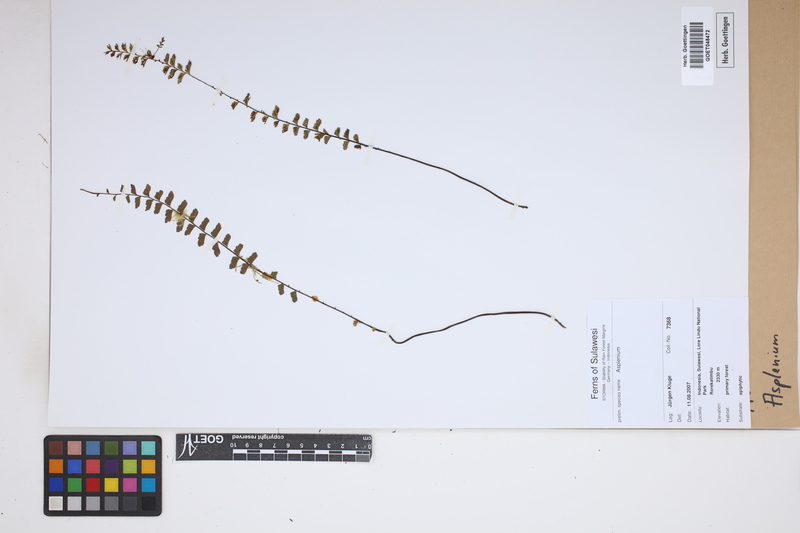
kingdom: Plantae
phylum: Tracheophyta
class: Polypodiopsida
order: Polypodiales
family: Aspleniaceae
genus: Asplenium
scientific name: Asplenium
